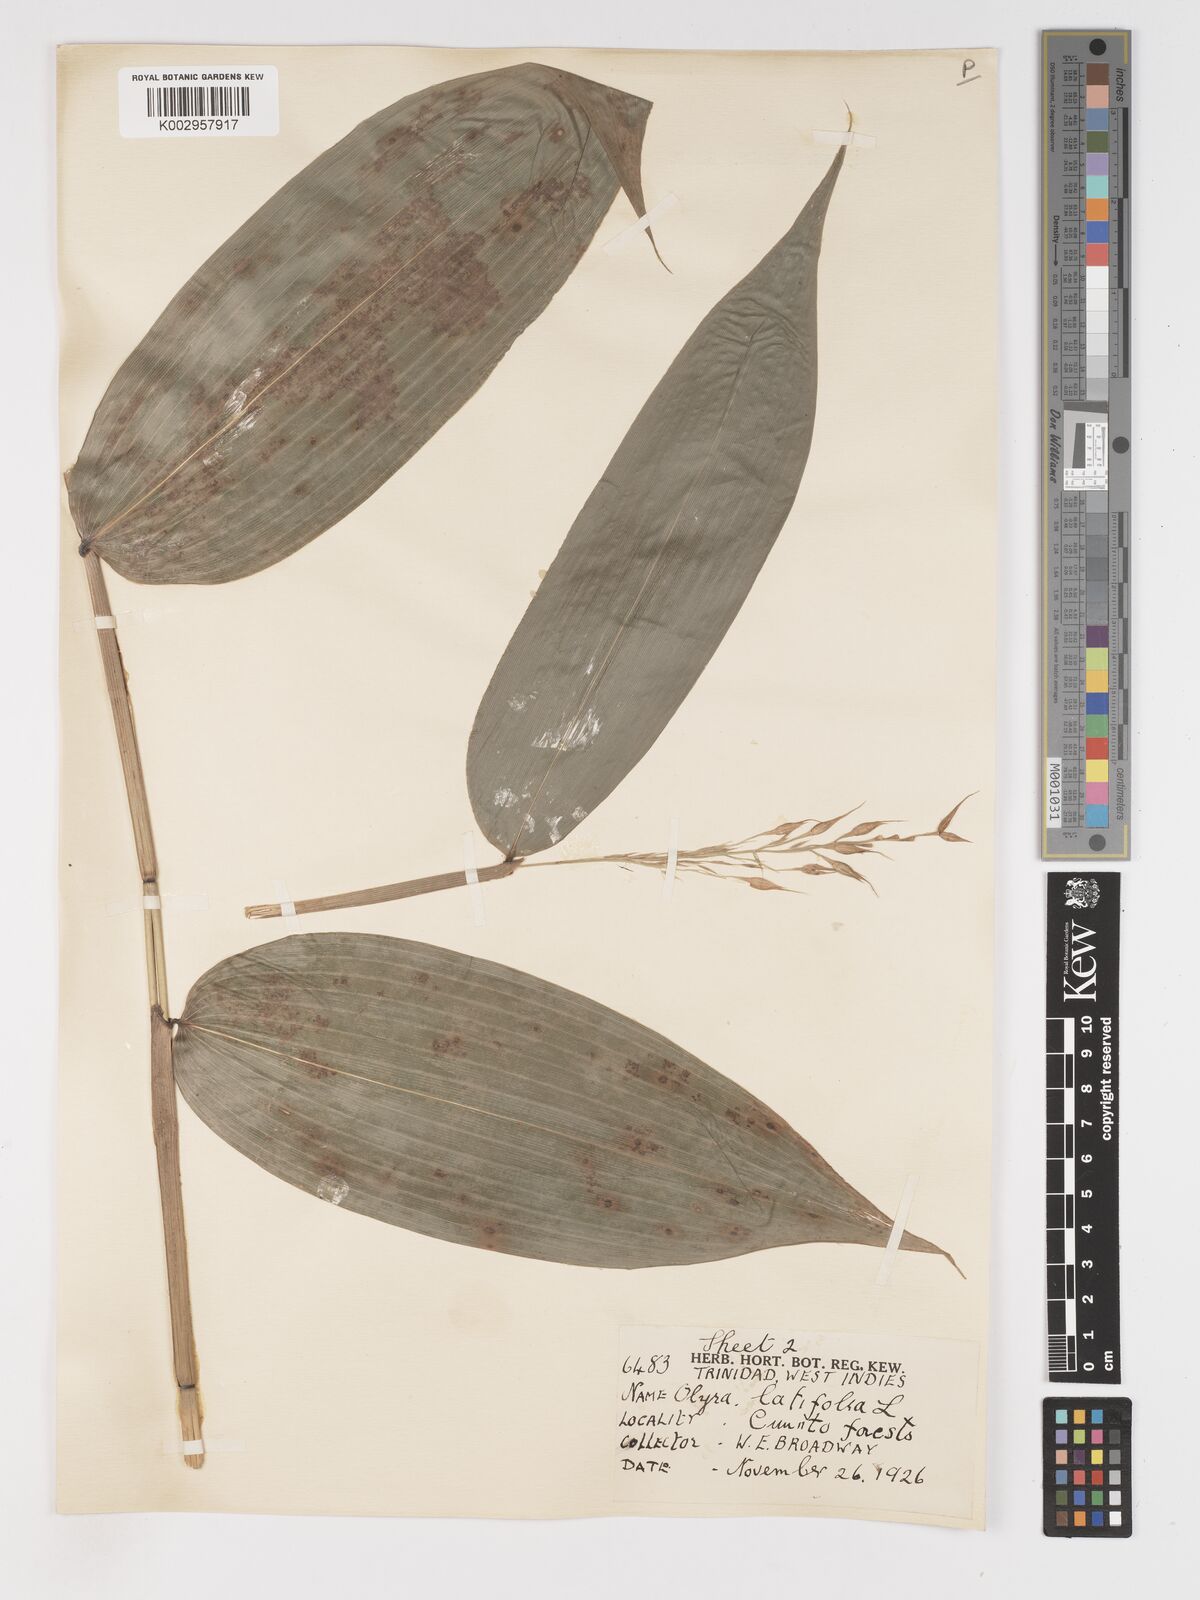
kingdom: Plantae
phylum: Tracheophyta
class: Liliopsida
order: Poales
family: Poaceae
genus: Olyra
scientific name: Olyra latifolia
